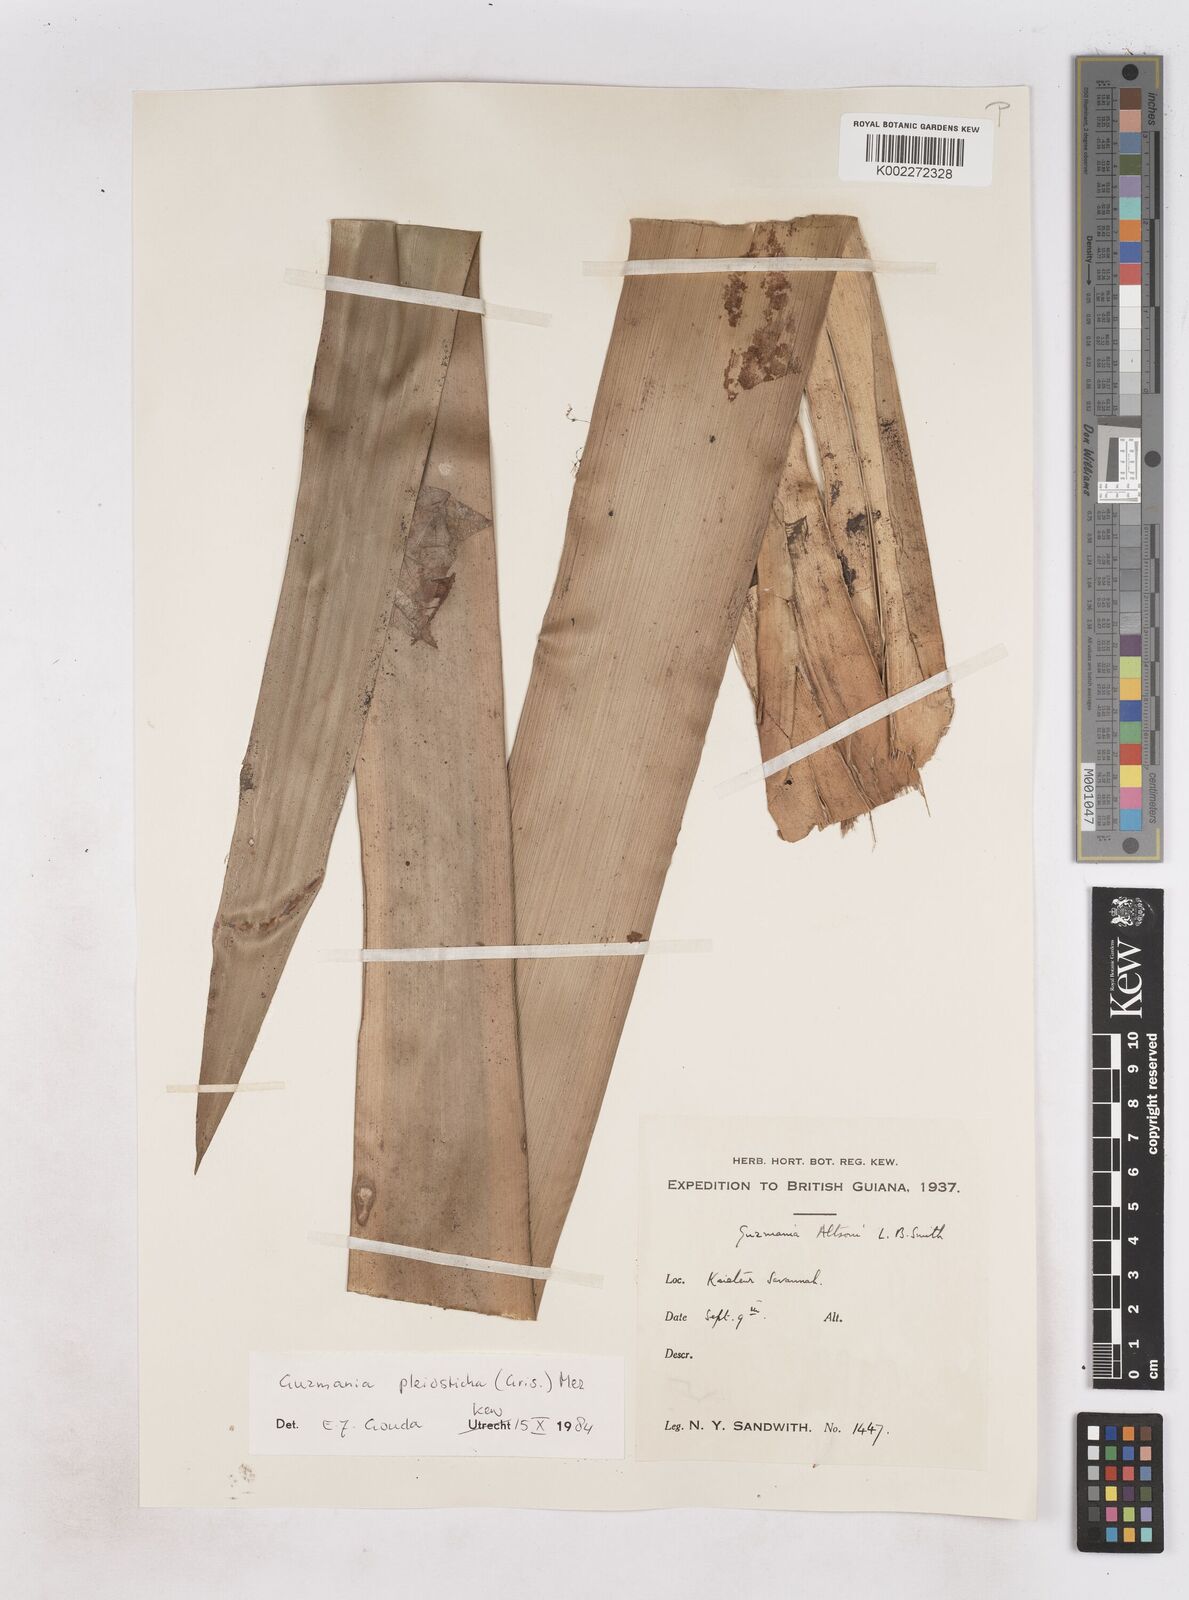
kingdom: Plantae
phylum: Tracheophyta
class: Liliopsida
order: Poales
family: Bromeliaceae
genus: Guzmania
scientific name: Guzmania altsonii
